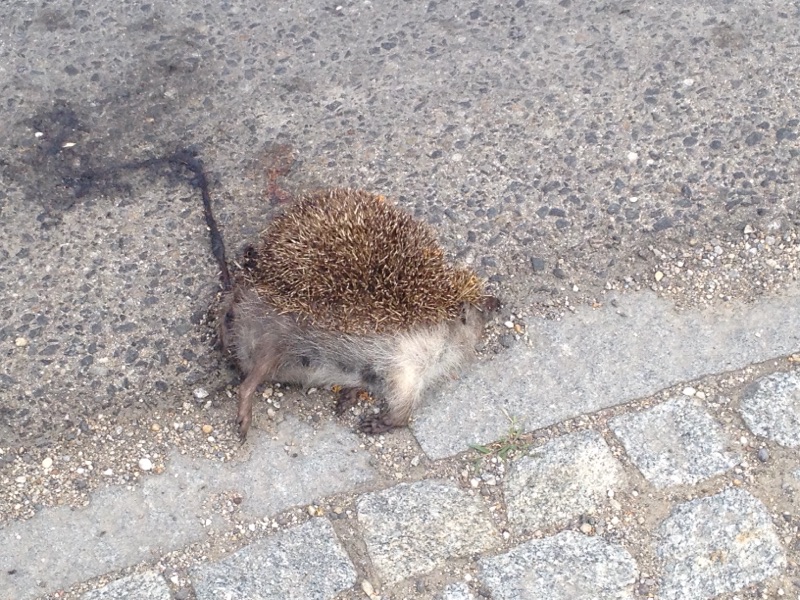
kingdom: Animalia
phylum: Chordata
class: Mammalia
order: Erinaceomorpha
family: Erinaceidae
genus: Erinaceus
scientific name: Erinaceus
